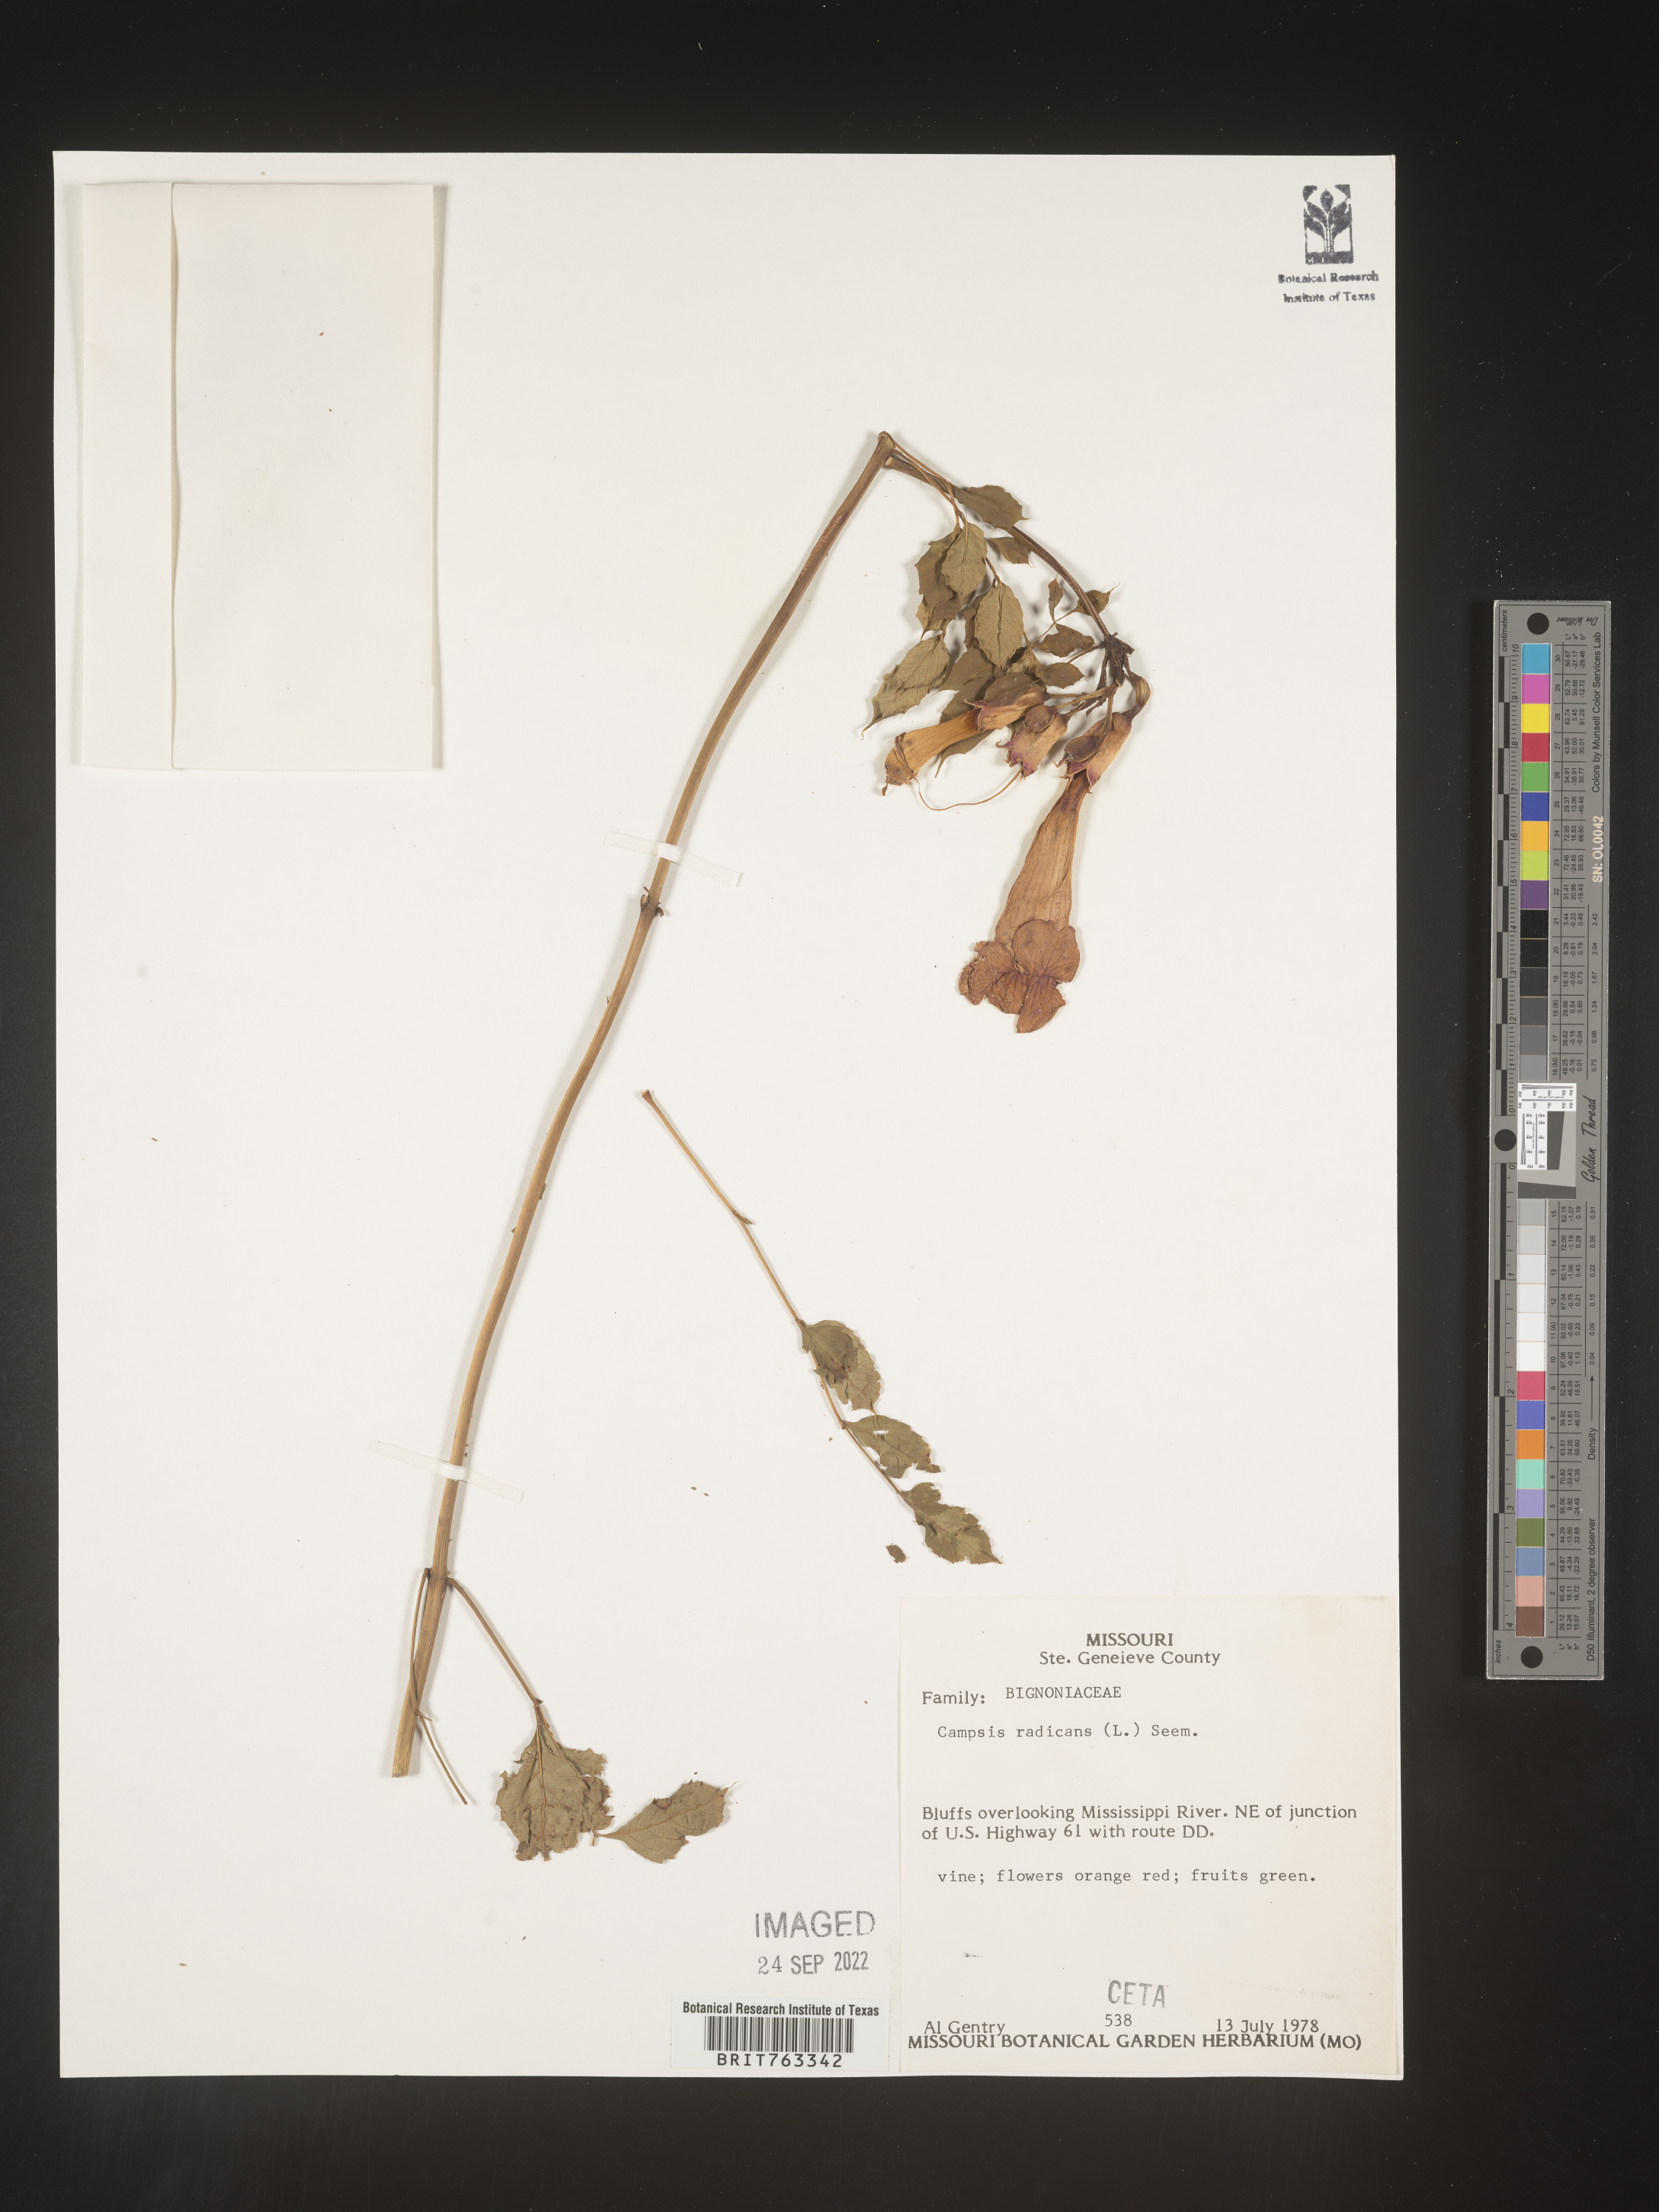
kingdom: Plantae
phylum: Tracheophyta
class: Magnoliopsida
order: Lamiales
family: Bignoniaceae
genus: Campsis
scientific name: Campsis radicans
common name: Trumpet-creeper
